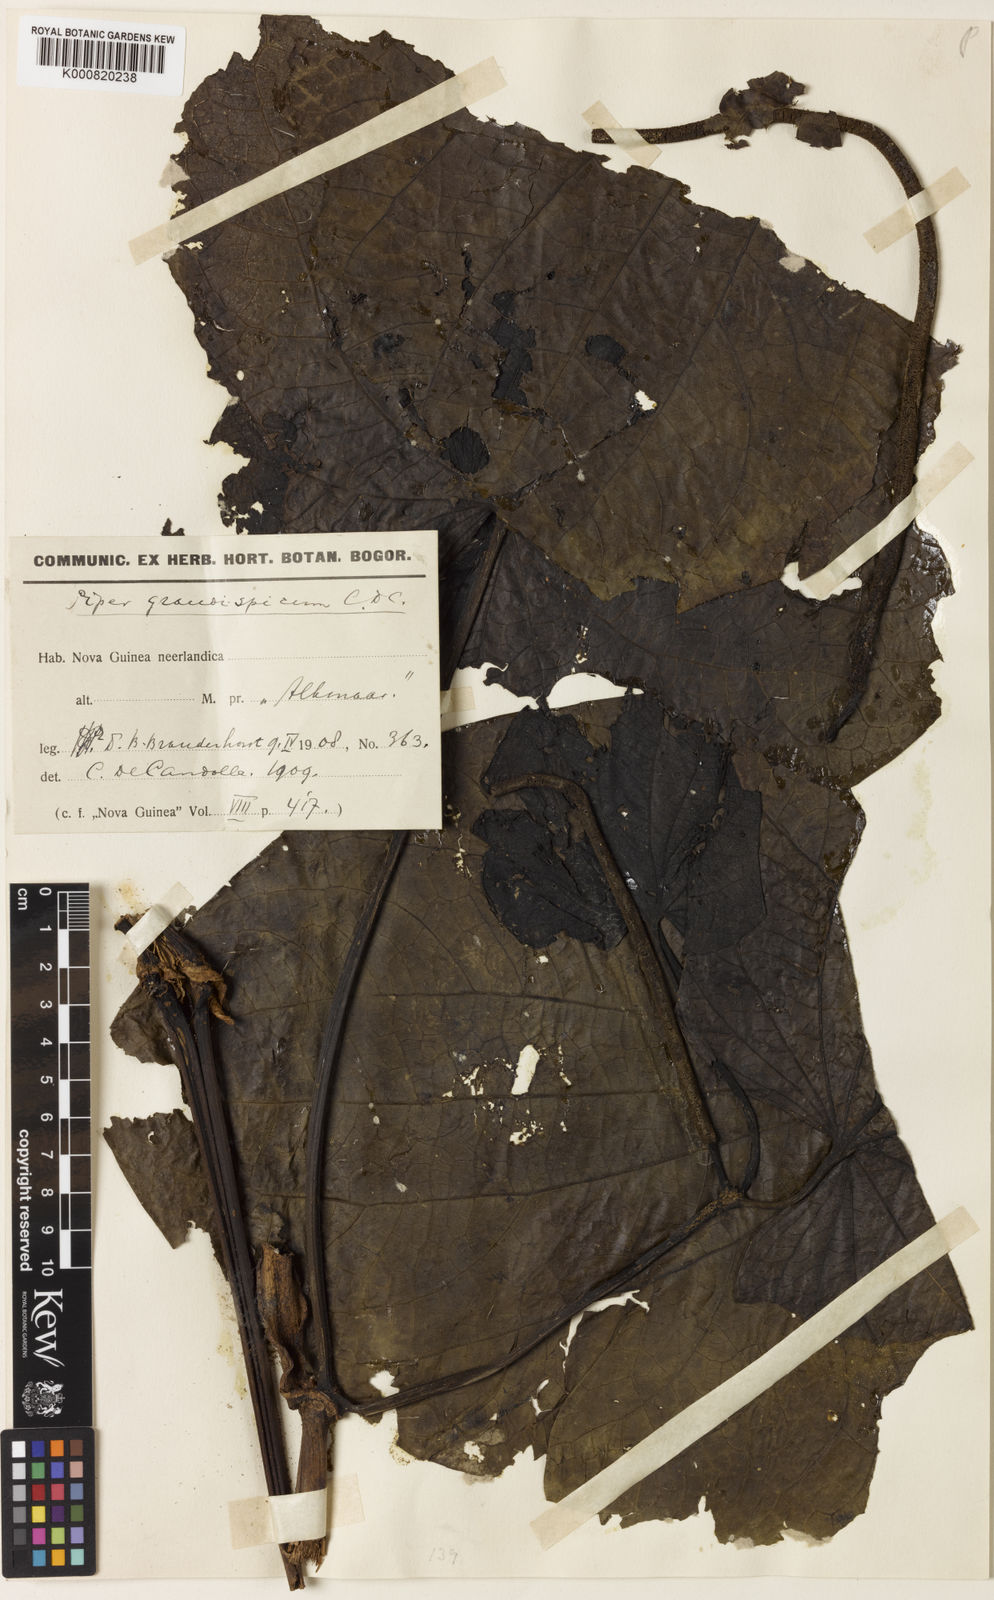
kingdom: Plantae
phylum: Tracheophyta
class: Magnoliopsida
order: Piperales
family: Piperaceae
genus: Piper
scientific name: Piper grandispicum
